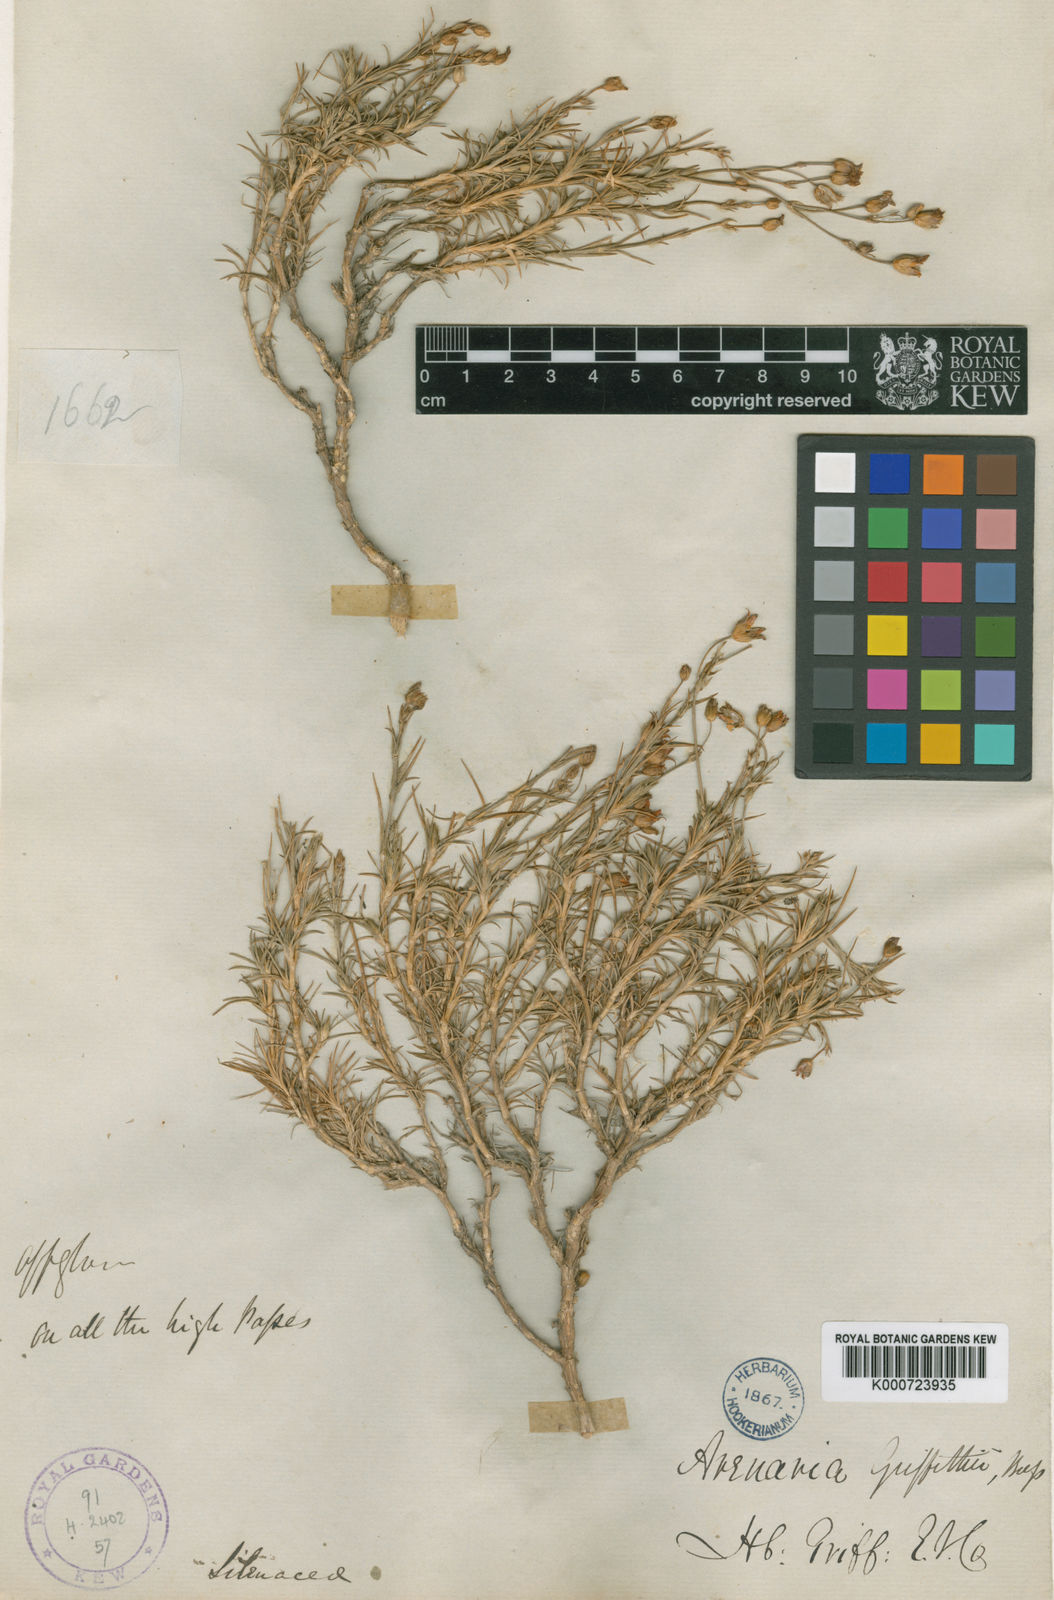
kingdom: Plantae
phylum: Tracheophyta
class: Magnoliopsida
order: Caryophyllales
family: Caryophyllaceae
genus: Eremogone
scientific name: Eremogone griffithii
